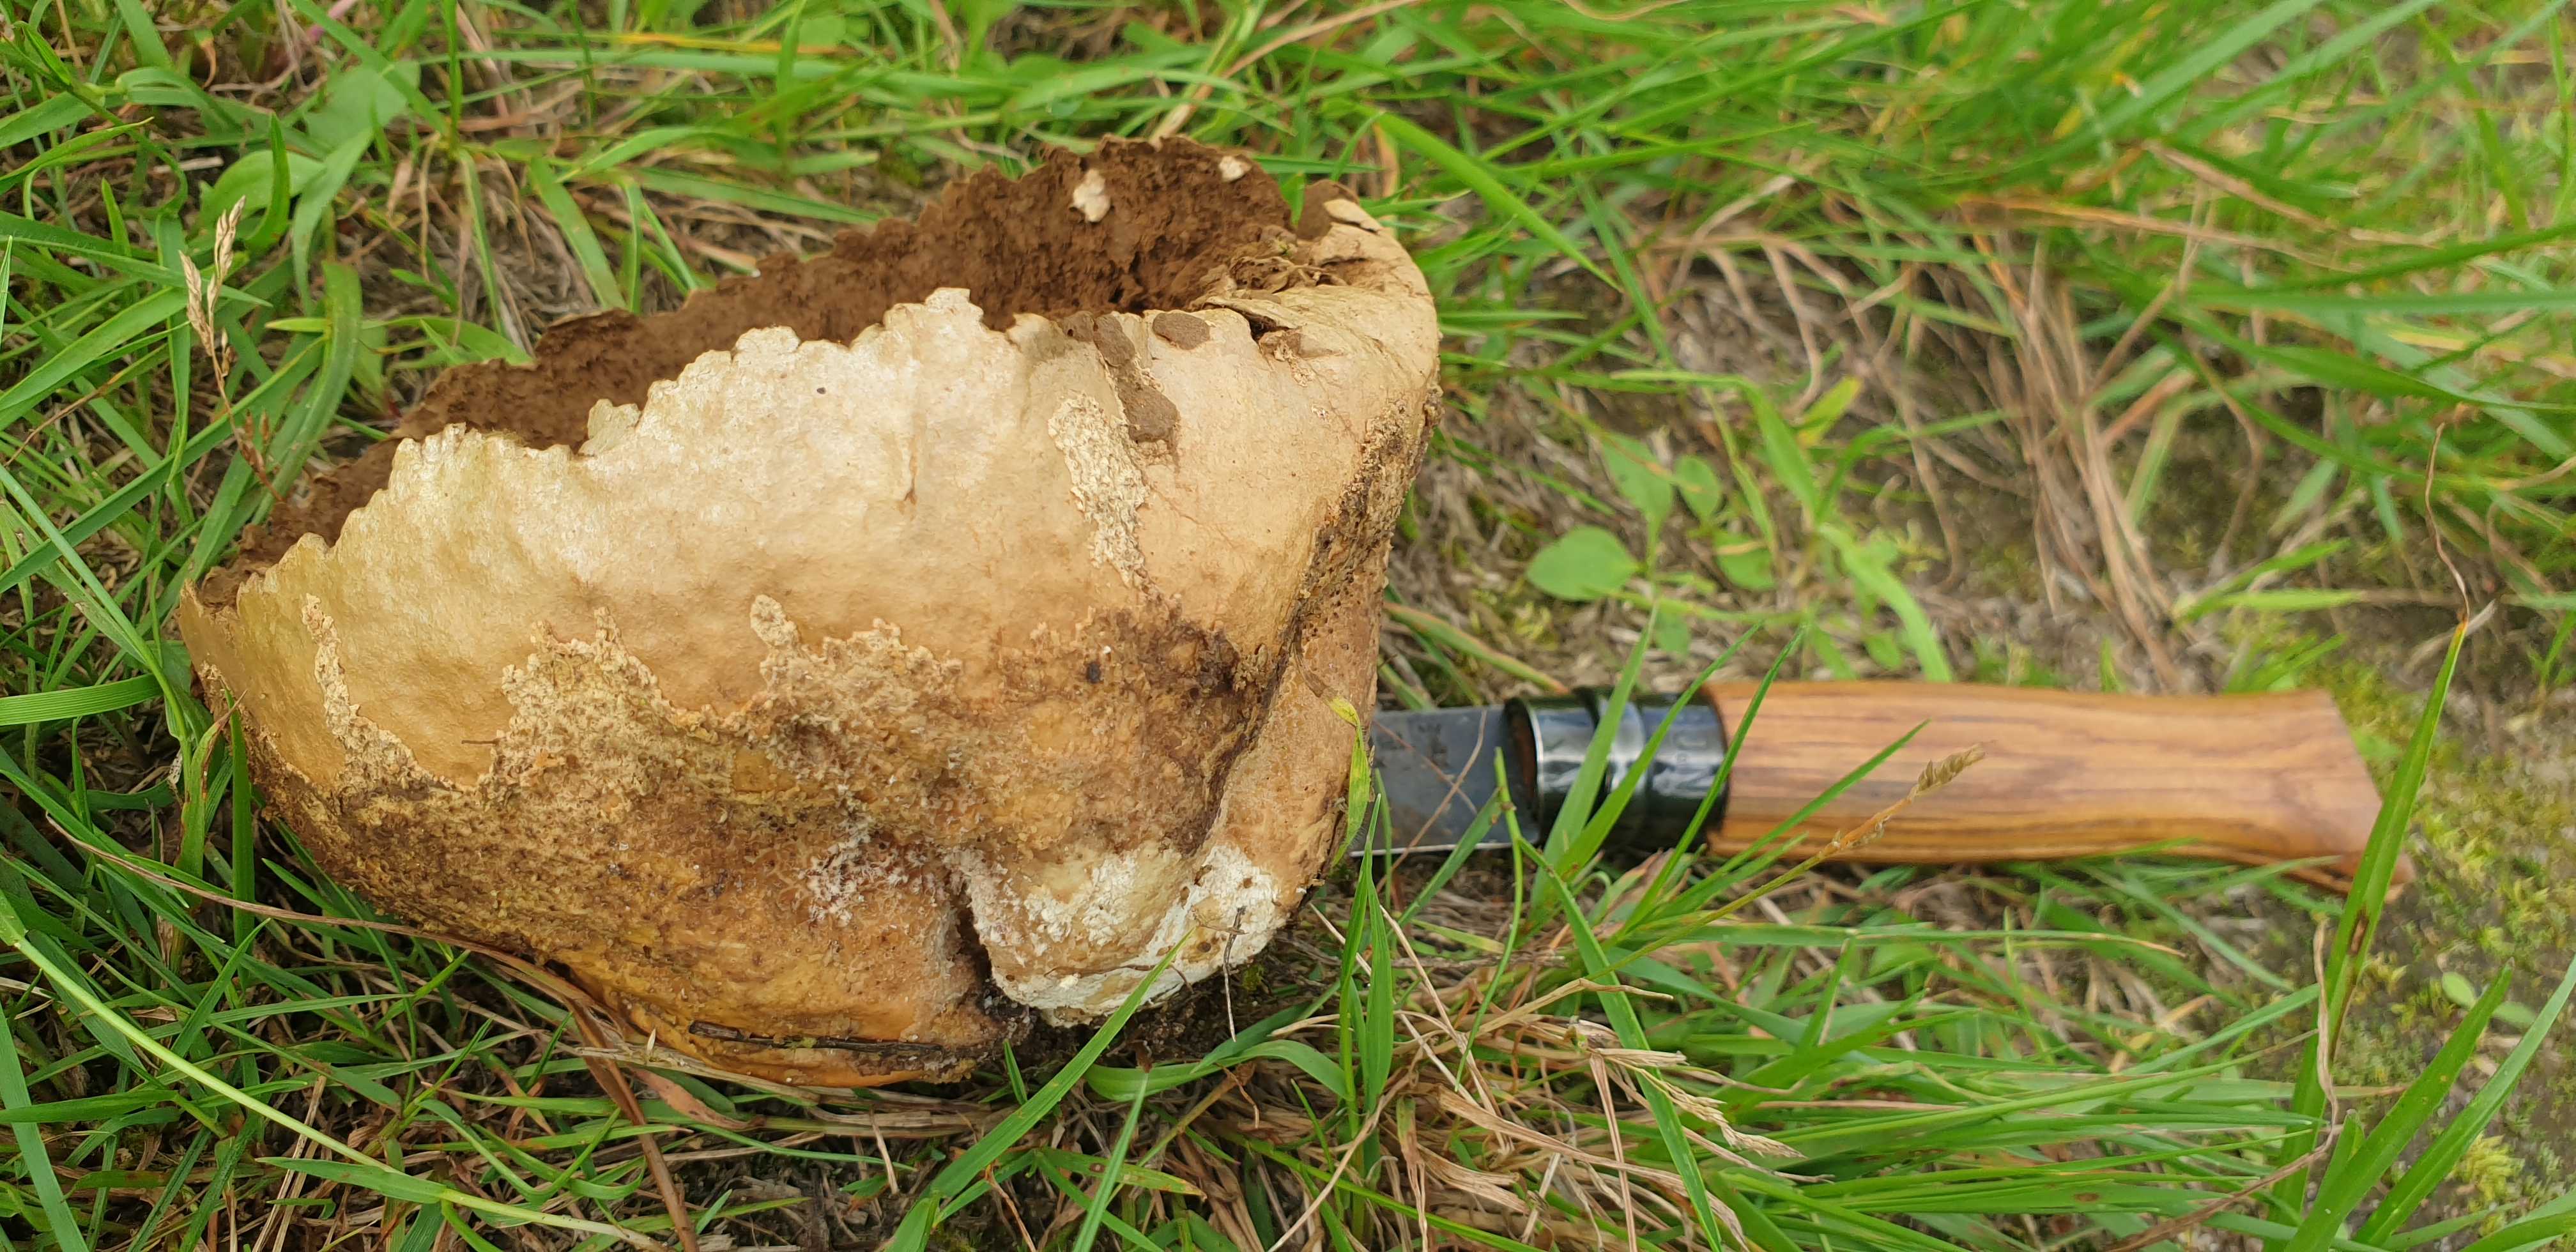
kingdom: Fungi
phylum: Basidiomycota
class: Agaricomycetes
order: Agaricales
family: Lycoperdaceae
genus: Bovistella
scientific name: Bovistella utriformis
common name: skællet støvbold
